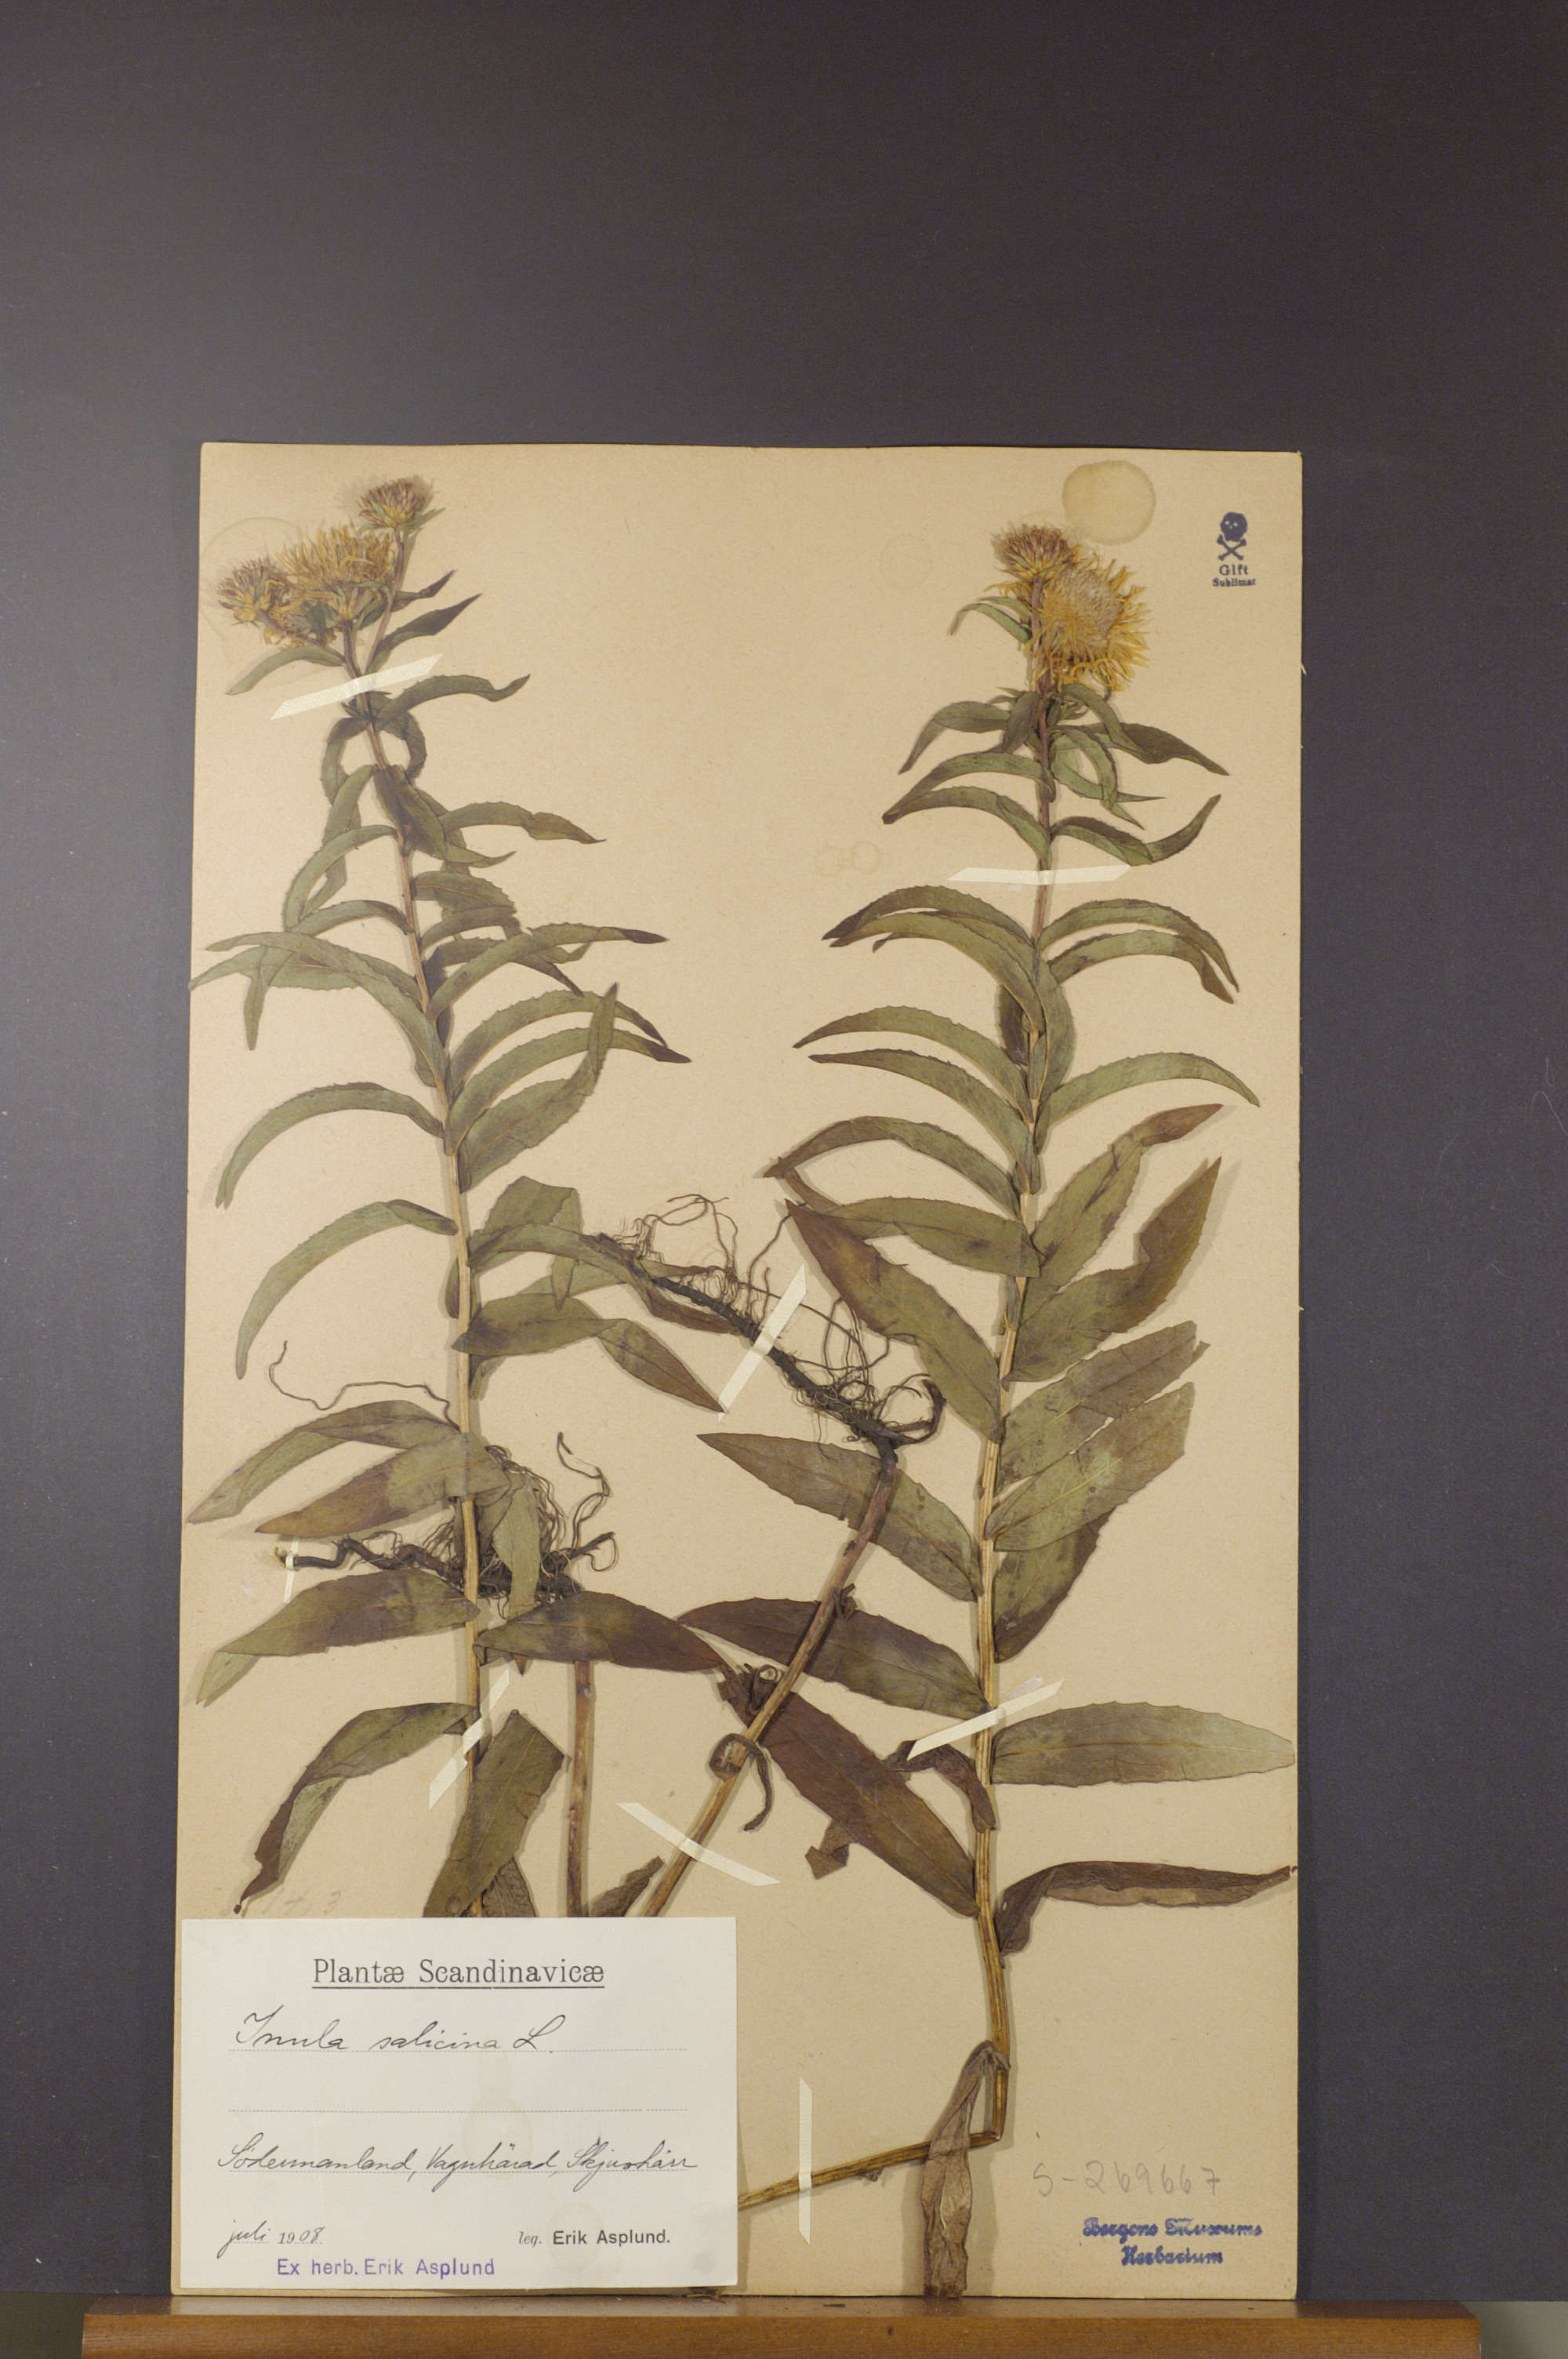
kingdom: Plantae
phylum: Tracheophyta
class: Magnoliopsida
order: Asterales
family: Asteraceae
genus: Pentanema
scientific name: Pentanema salicinum
